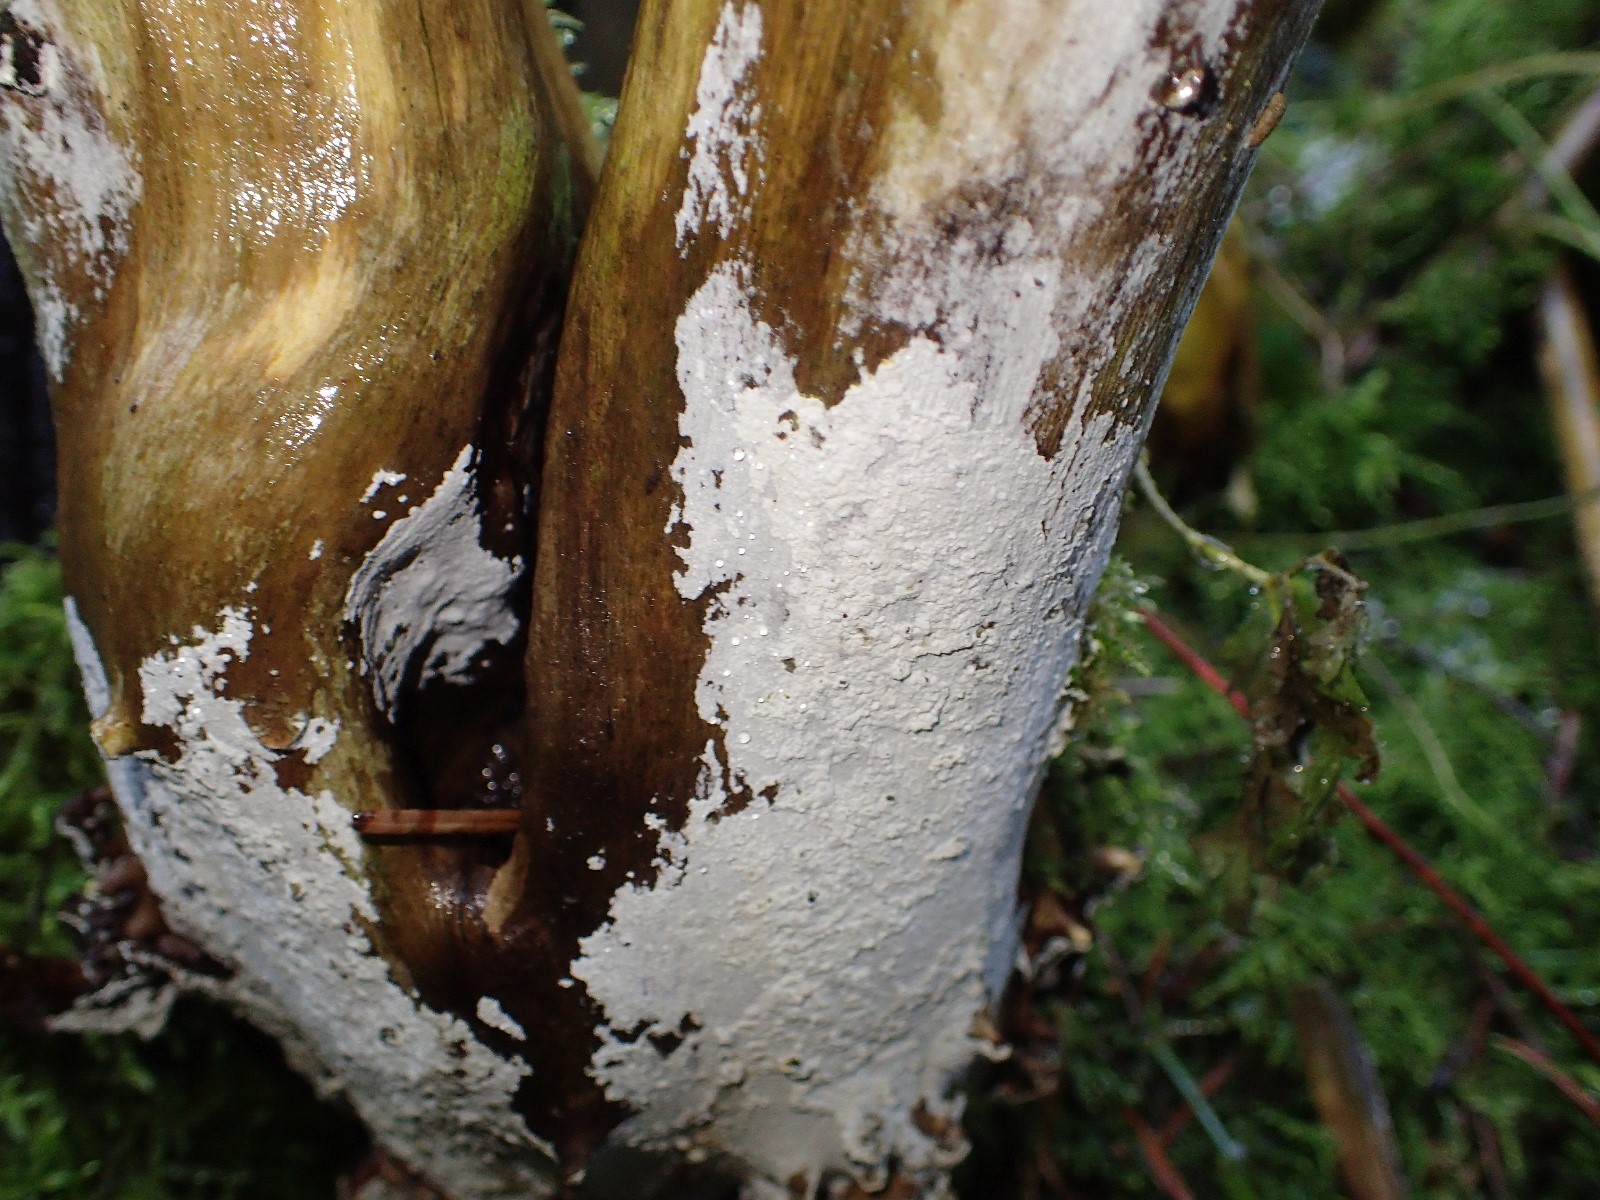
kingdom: Fungi
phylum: Basidiomycota
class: Agaricomycetes
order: Corticiales
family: Corticiaceae
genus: Lyomyces
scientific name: Lyomyces sambuci
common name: almindelig hyldehinde
